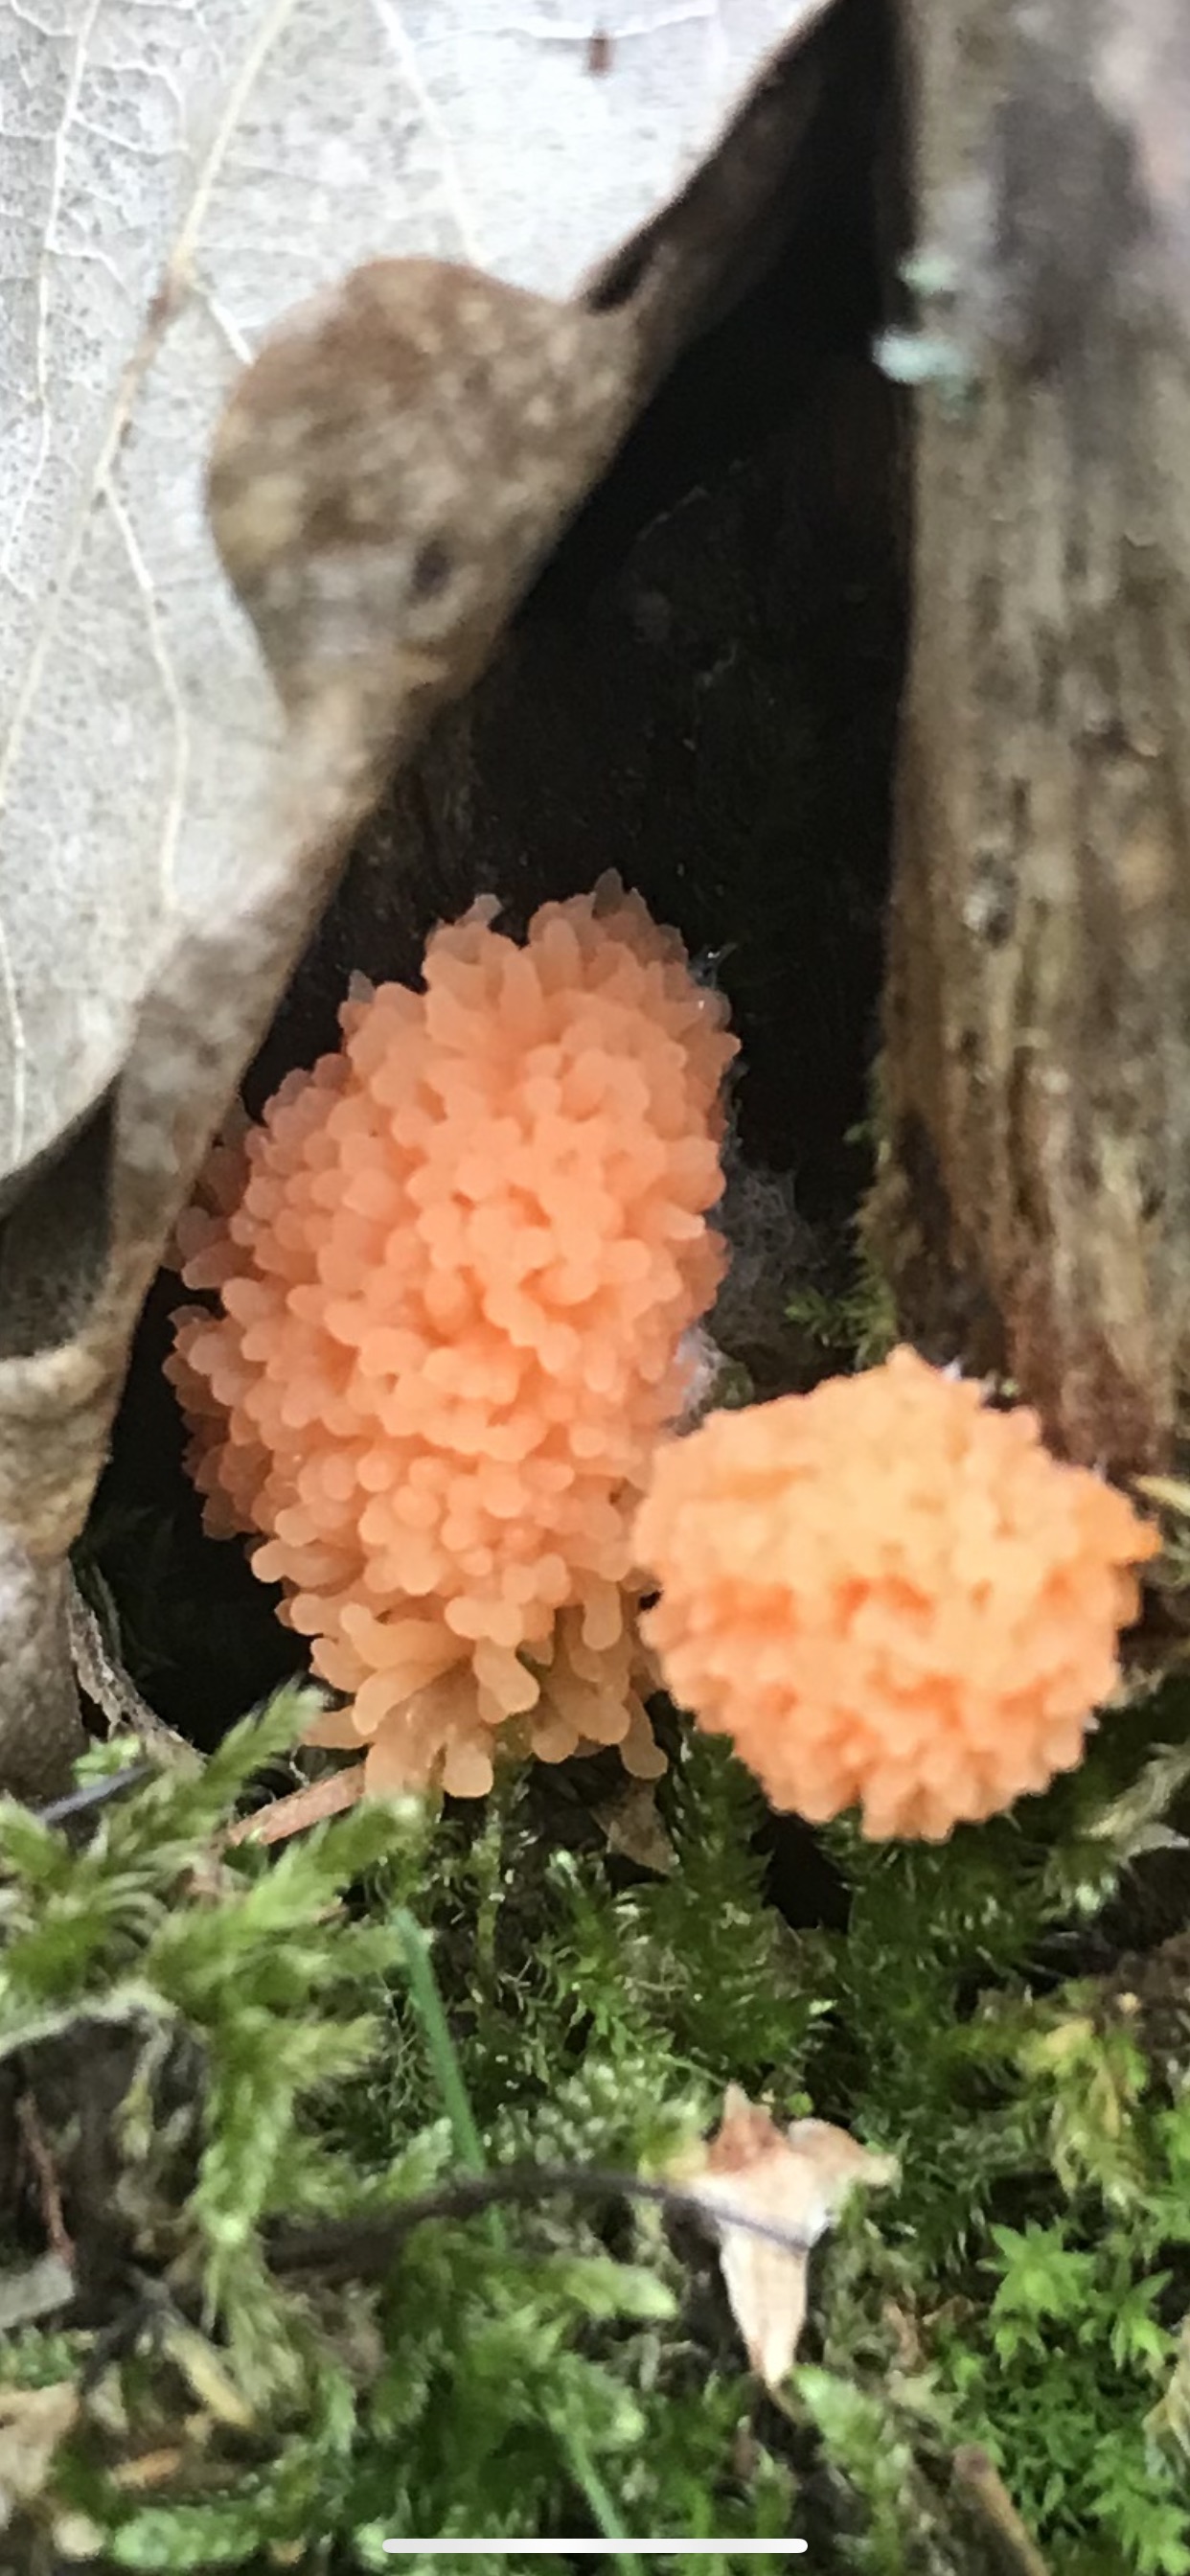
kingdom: Protozoa
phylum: Mycetozoa
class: Myxomycetes
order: Cribrariales
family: Tubiferaceae
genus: Tubifera
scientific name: Tubifera ferruginosa
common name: kanel-støvrør
